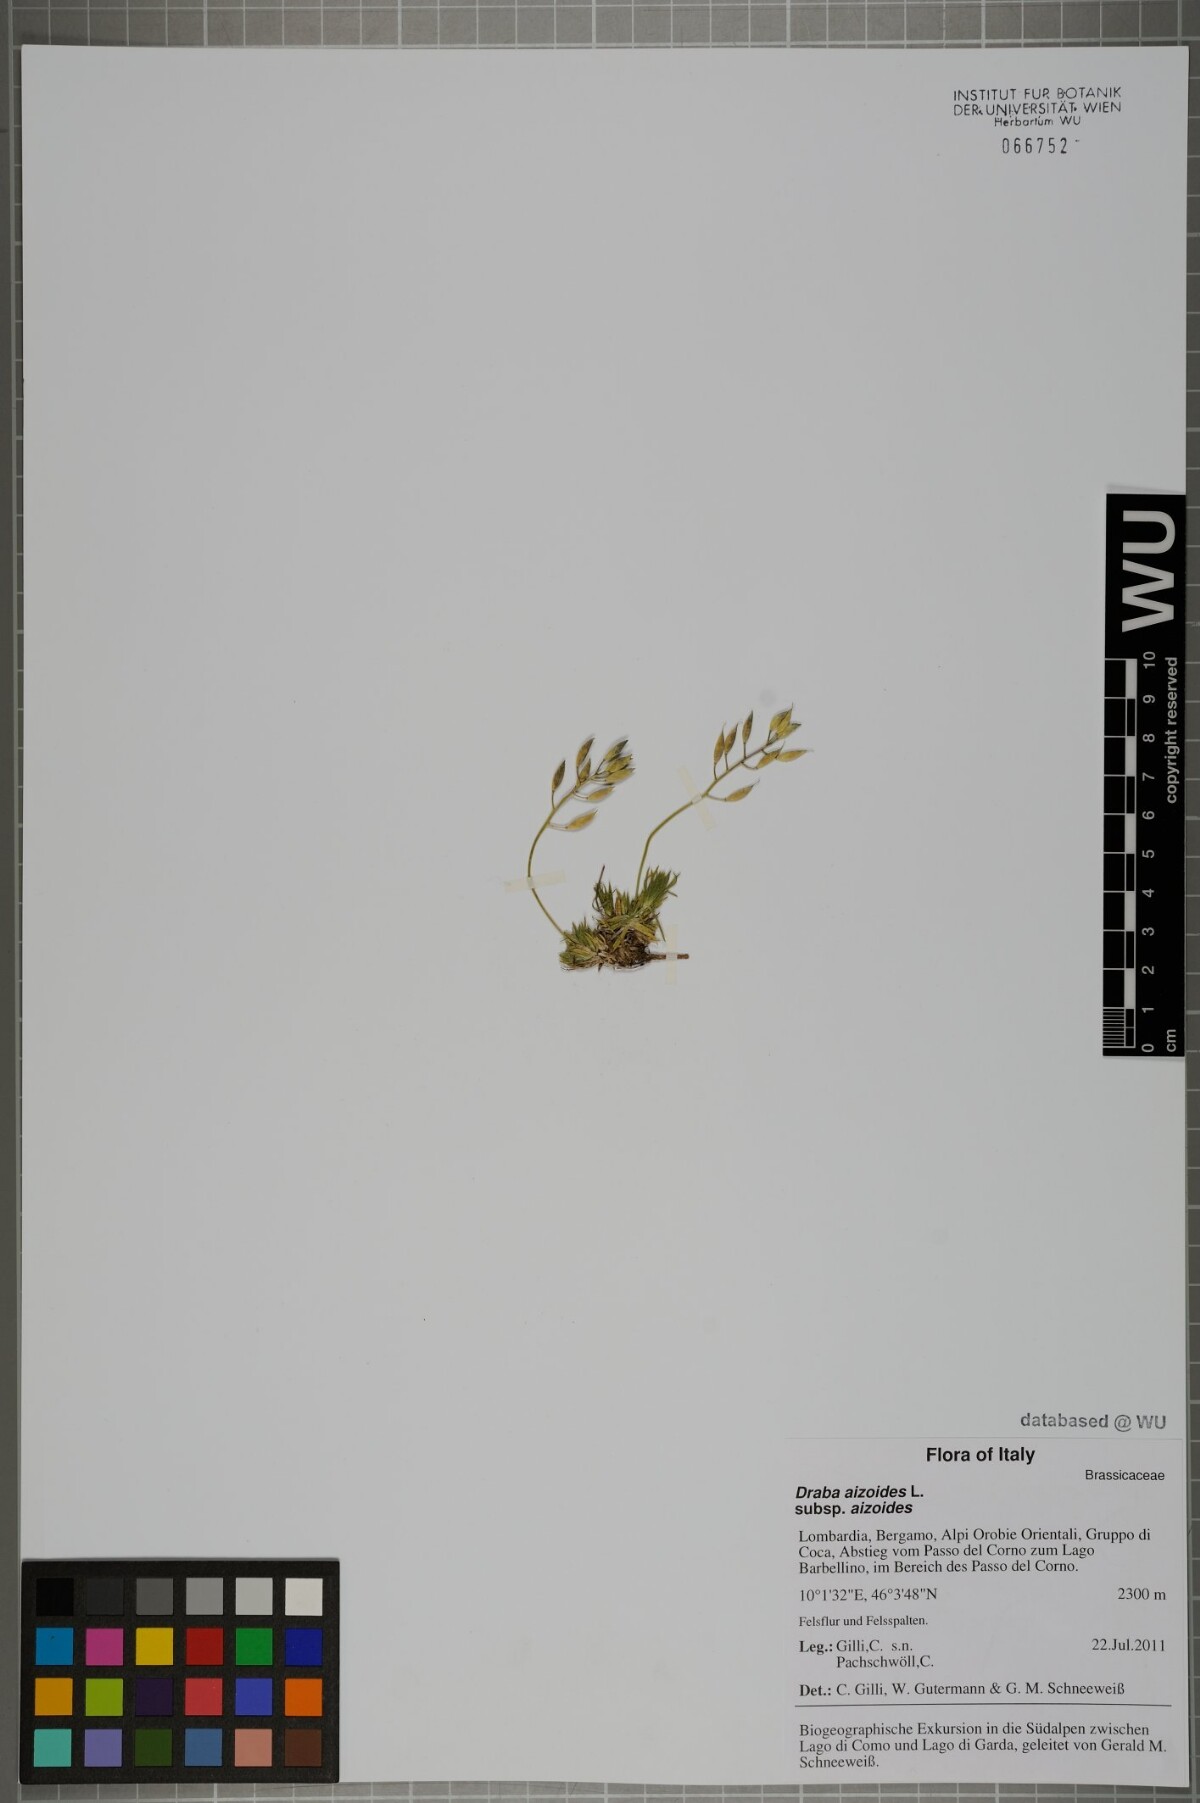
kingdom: Plantae
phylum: Tracheophyta
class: Magnoliopsida
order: Brassicales
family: Brassicaceae
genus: Draba
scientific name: Draba aizoides
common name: Yellow whitlowgrass
